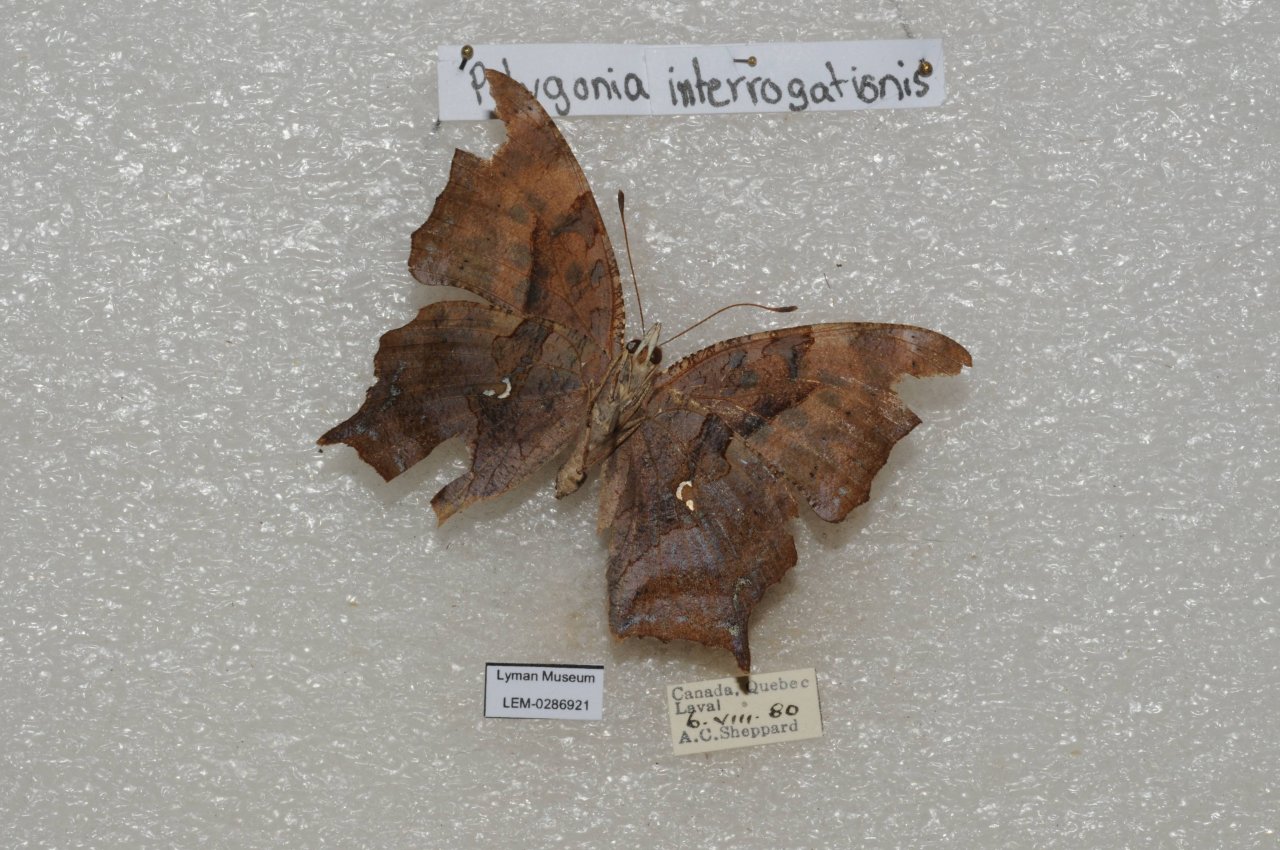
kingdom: Animalia
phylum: Arthropoda
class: Insecta
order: Lepidoptera
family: Nymphalidae
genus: Polygonia
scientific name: Polygonia interrogationis
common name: Question Mark
